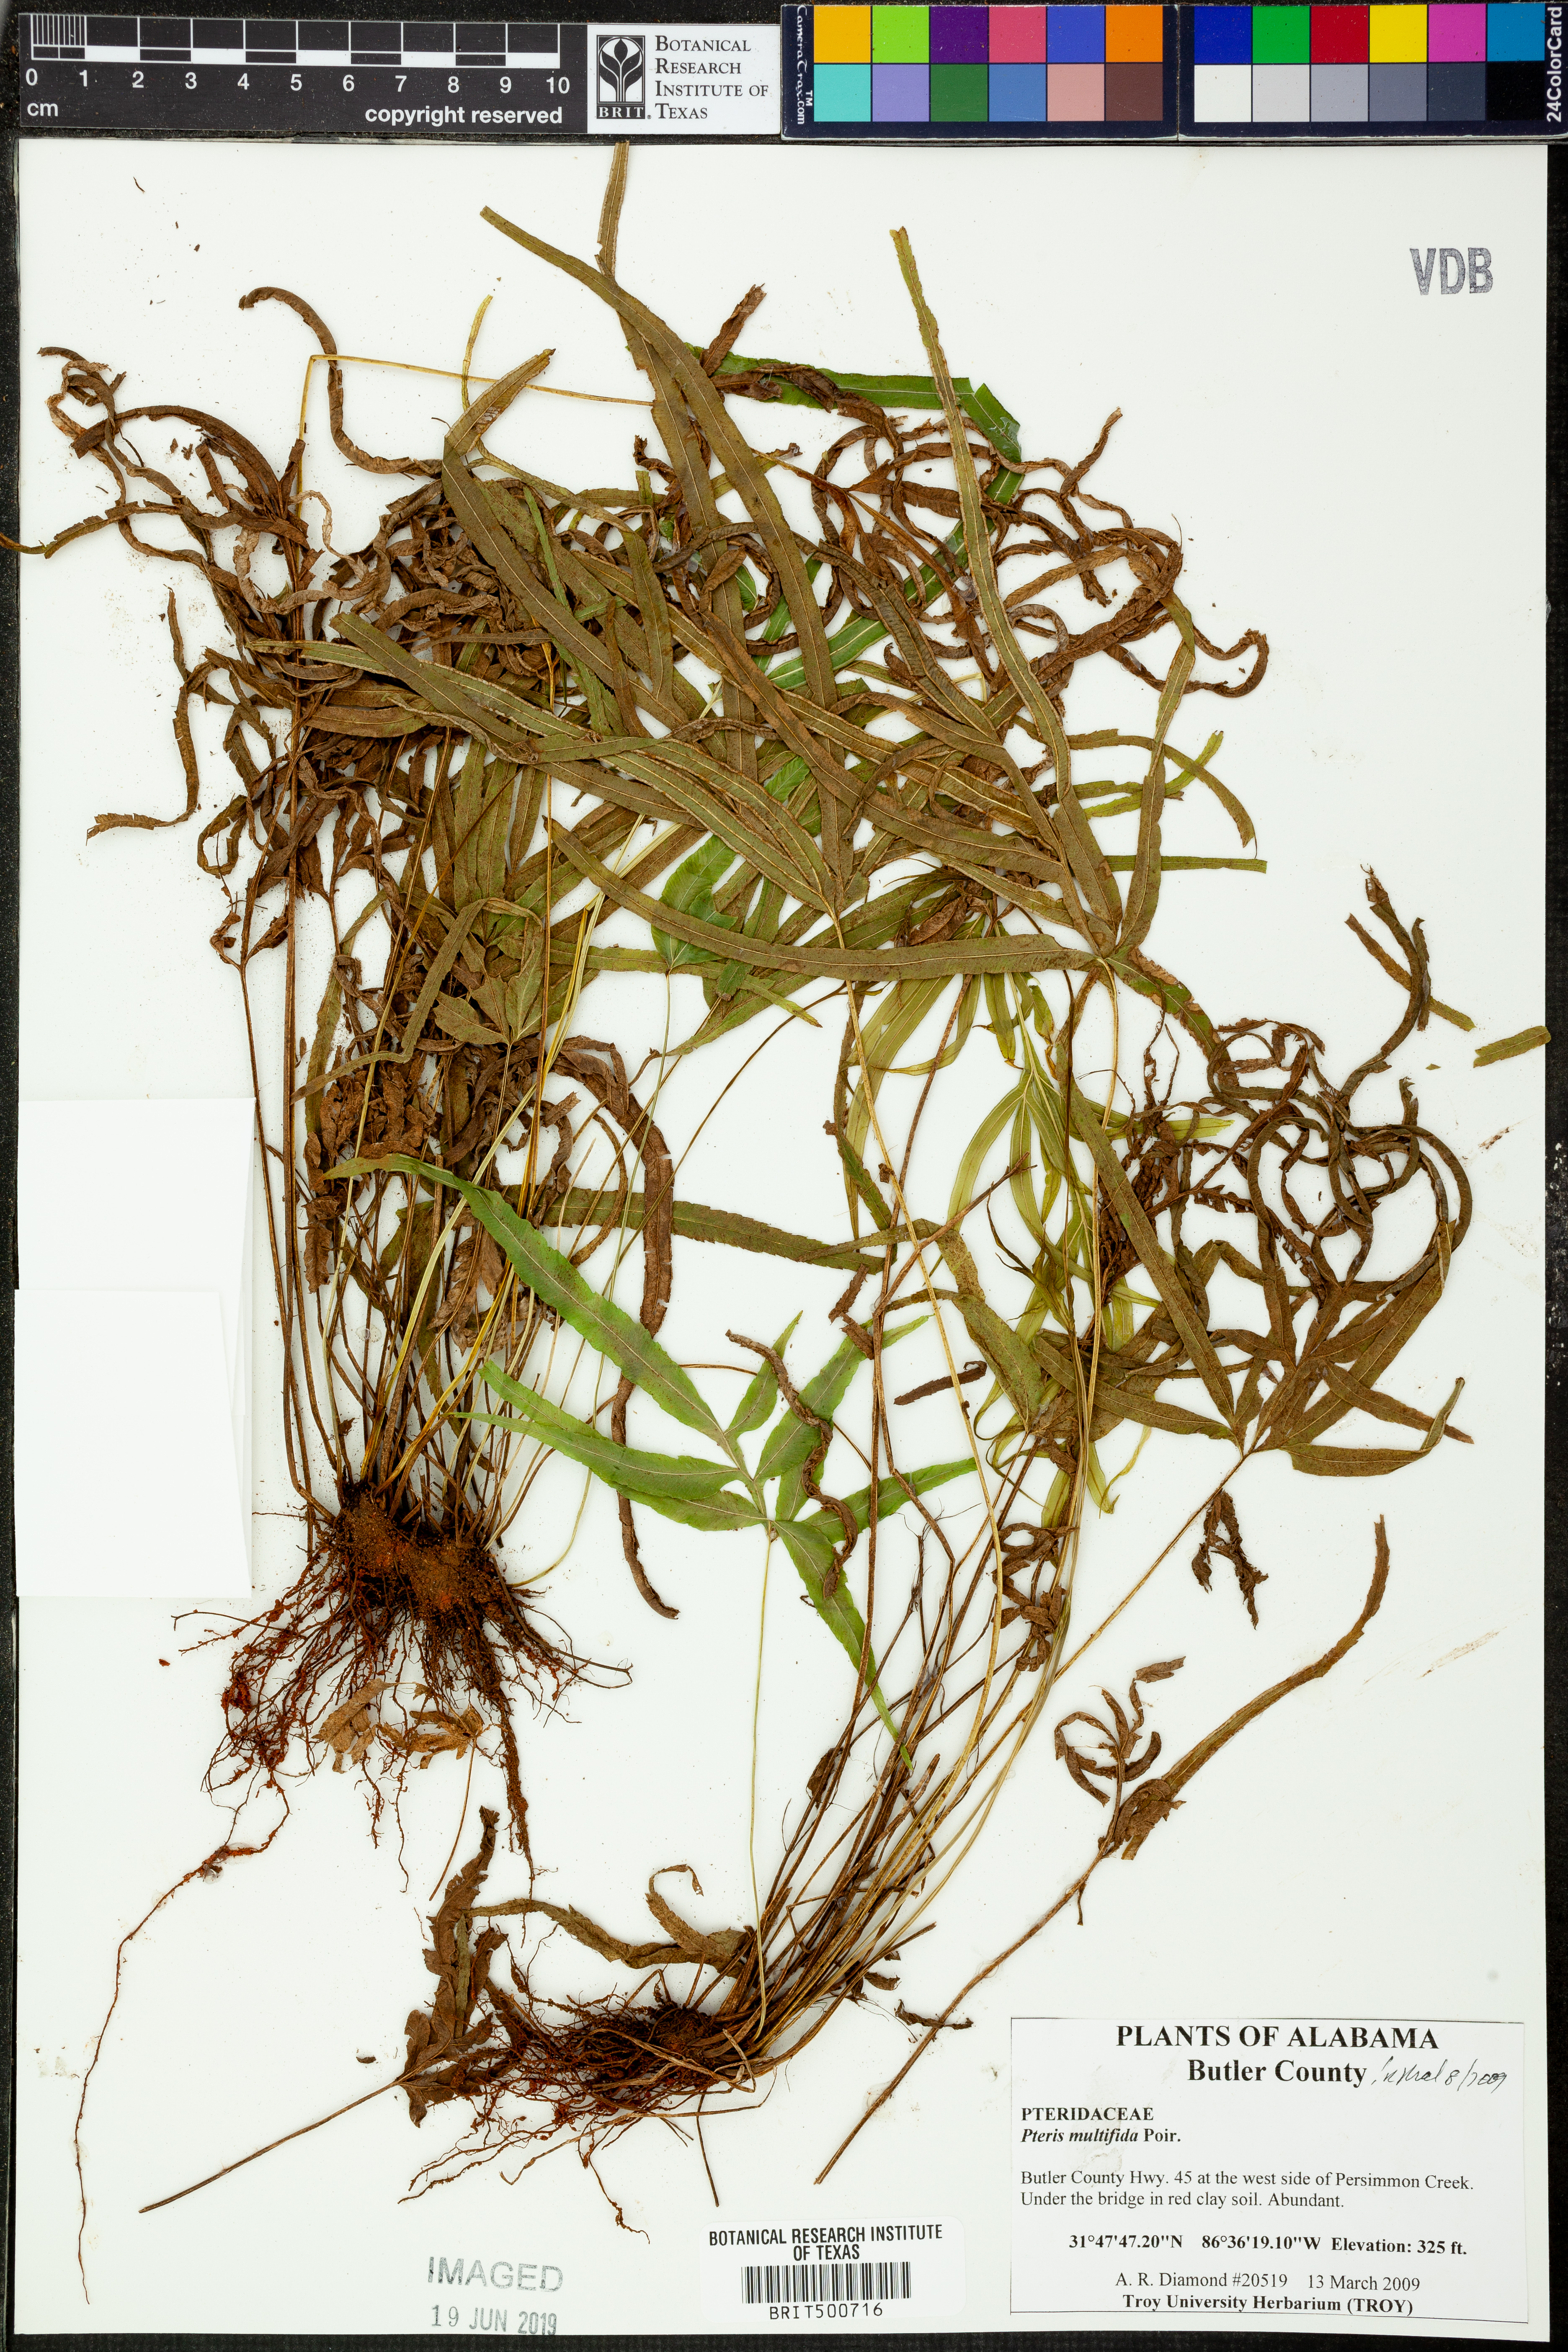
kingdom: Plantae
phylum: Tracheophyta
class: Polypodiopsida
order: Polypodiales
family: Pteridaceae
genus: Pteris
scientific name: Pteris multifida
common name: Spider brake
